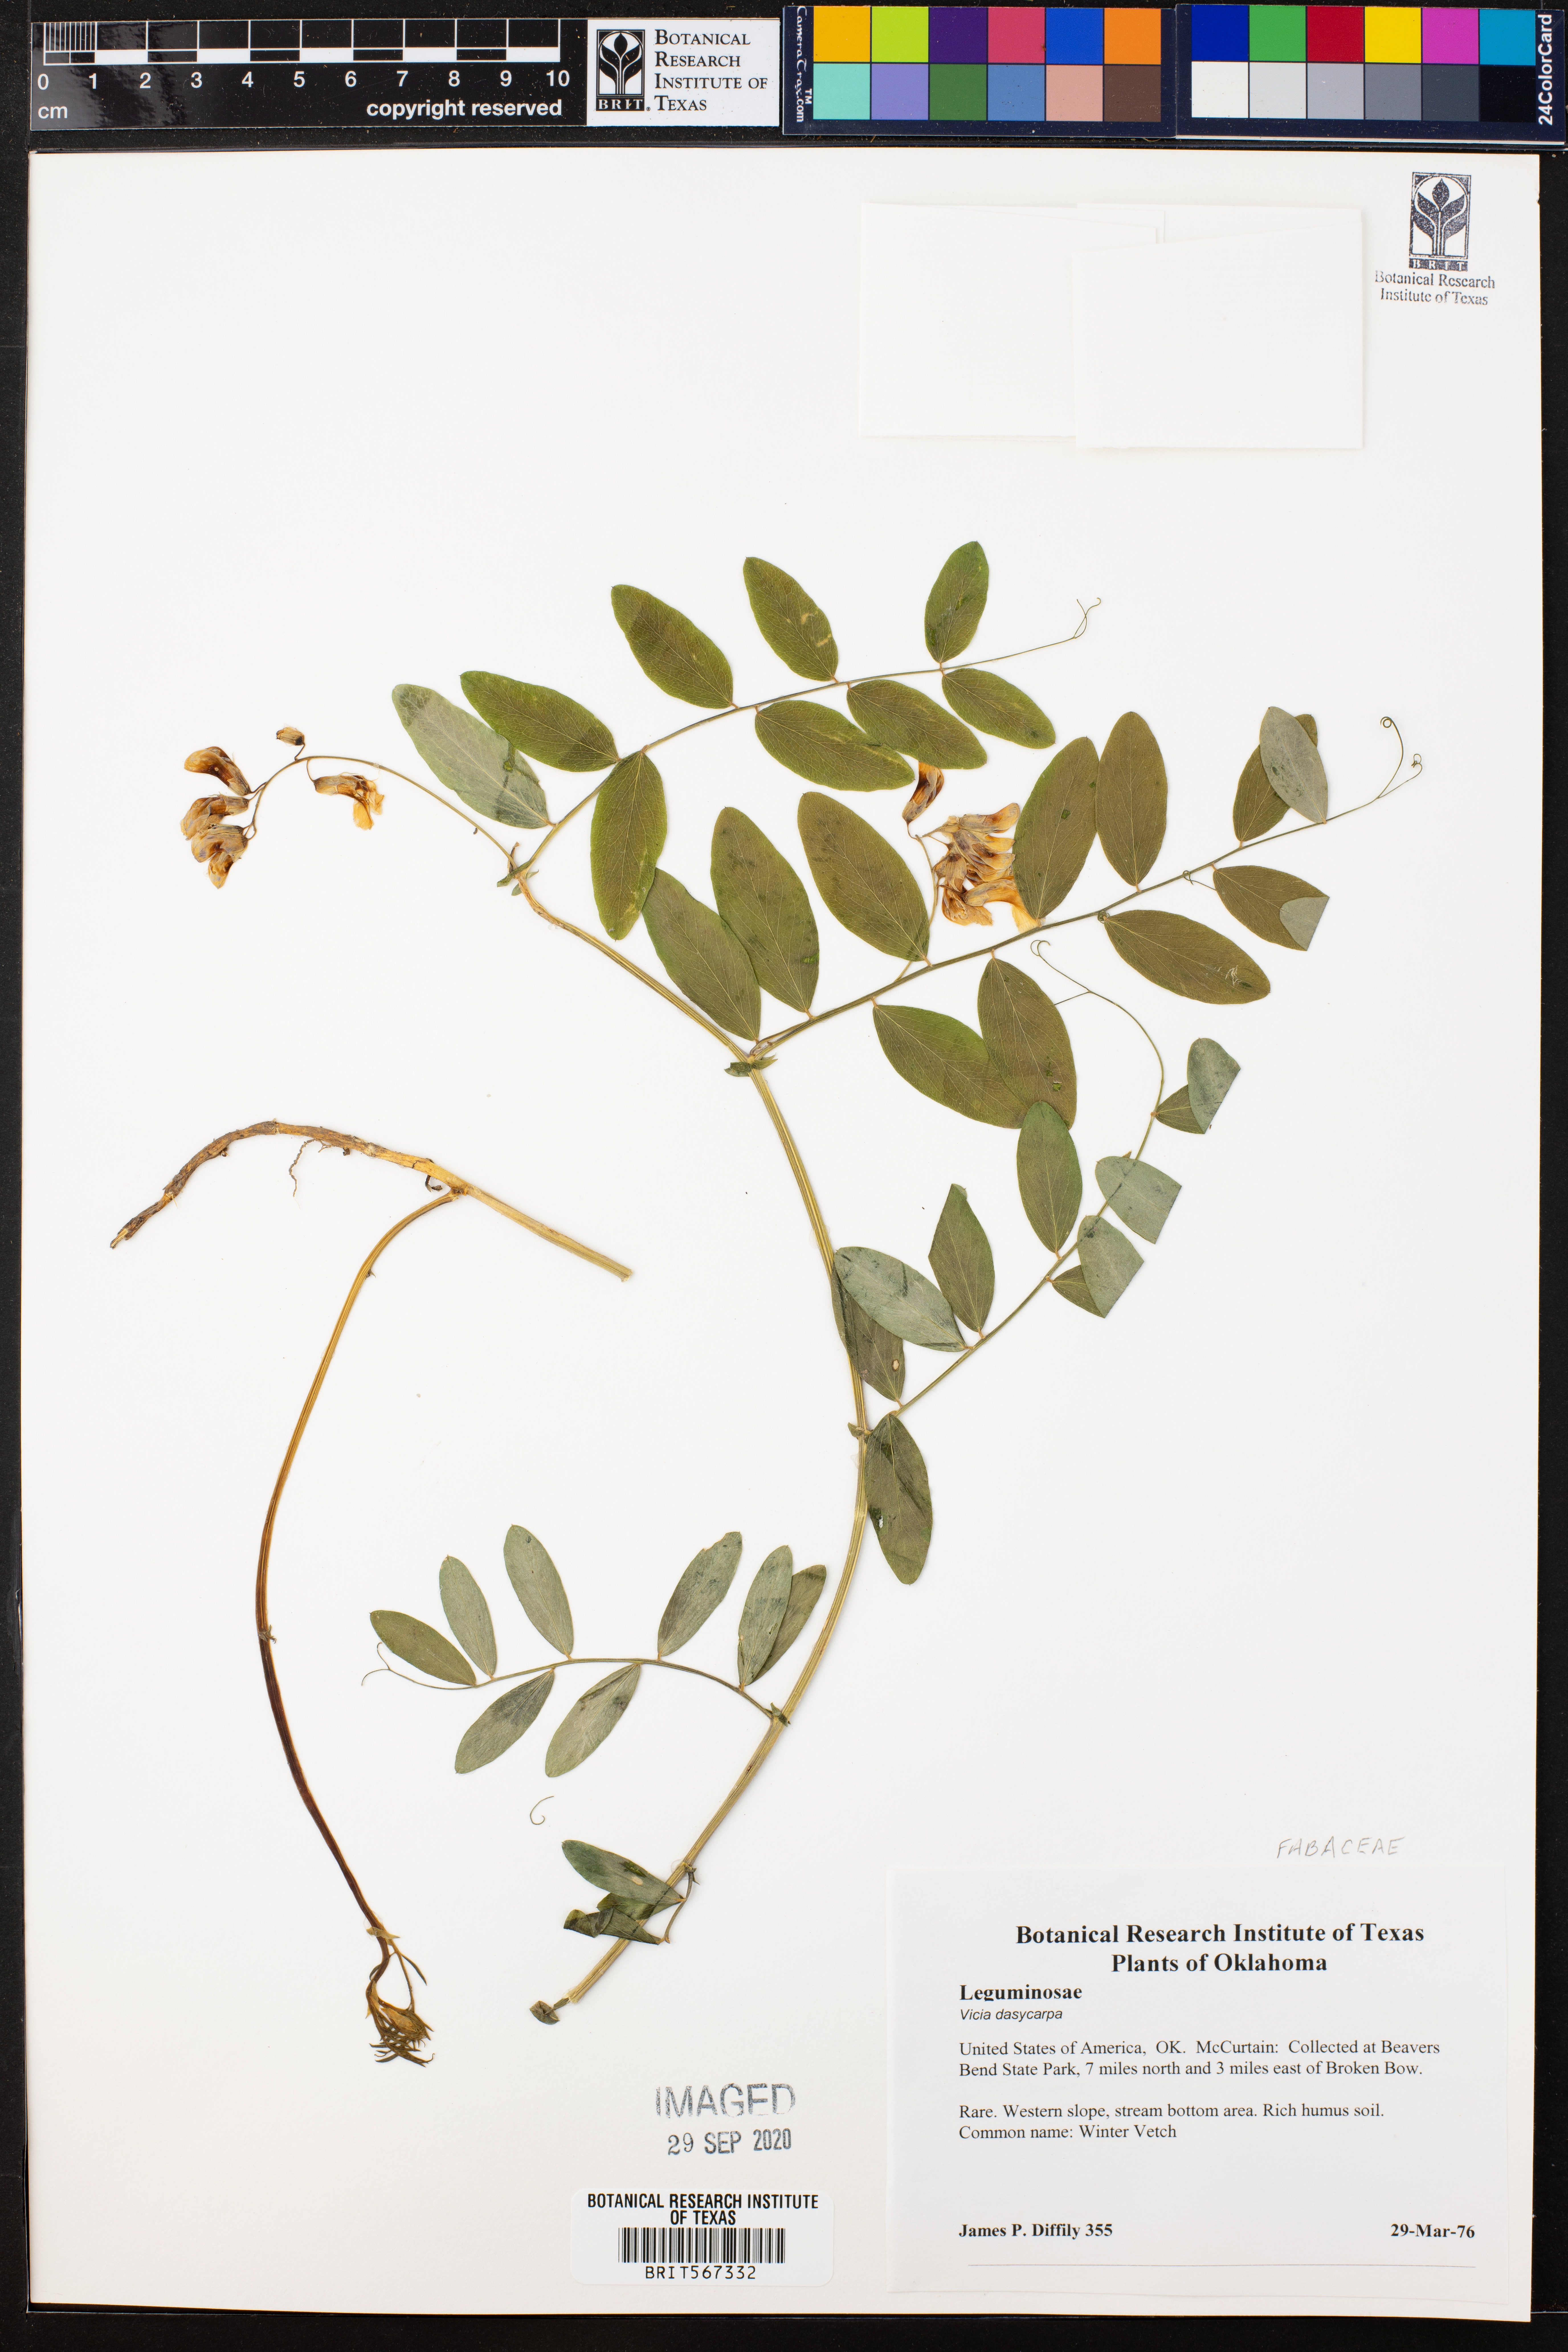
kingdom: Plantae
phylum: Tracheophyta
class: Magnoliopsida
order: Fabales
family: Fabaceae
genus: Vicia
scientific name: Vicia villosa
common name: Fodder vetch
